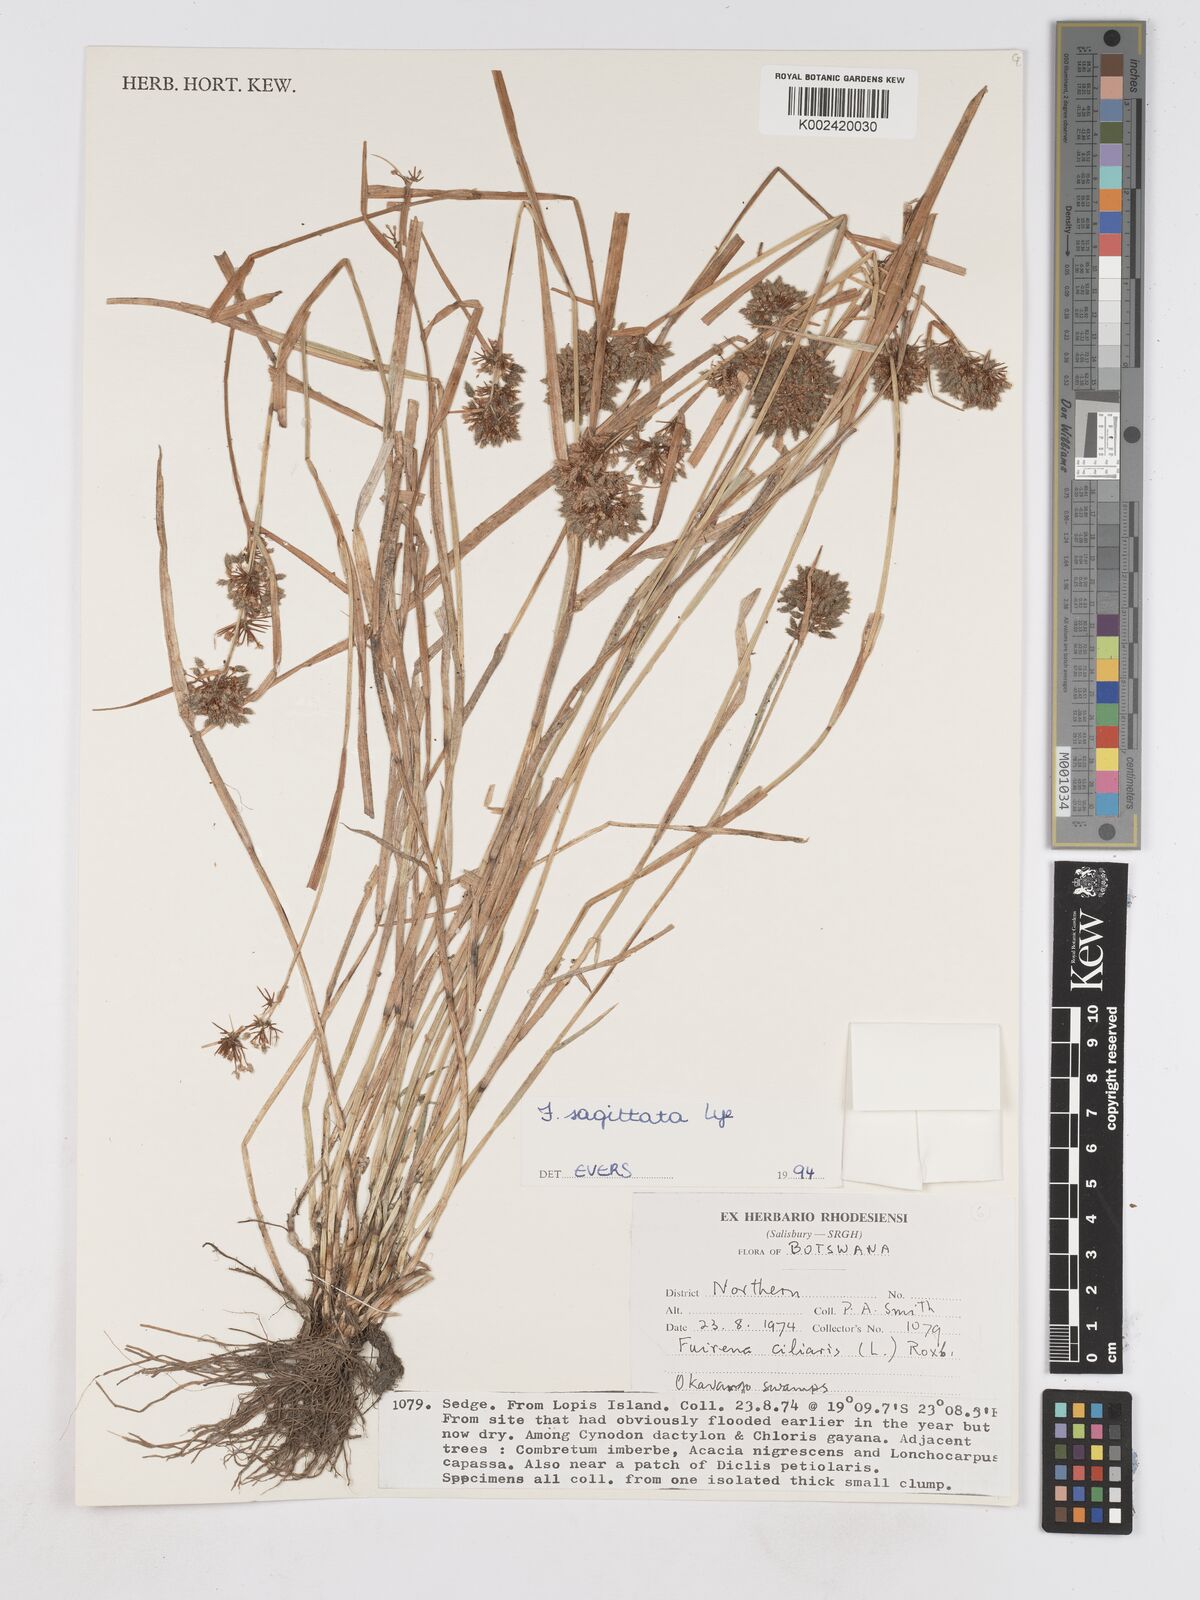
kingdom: Plantae
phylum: Tracheophyta
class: Liliopsida
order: Poales
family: Cyperaceae
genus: Fuirena
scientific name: Fuirena sagittata
